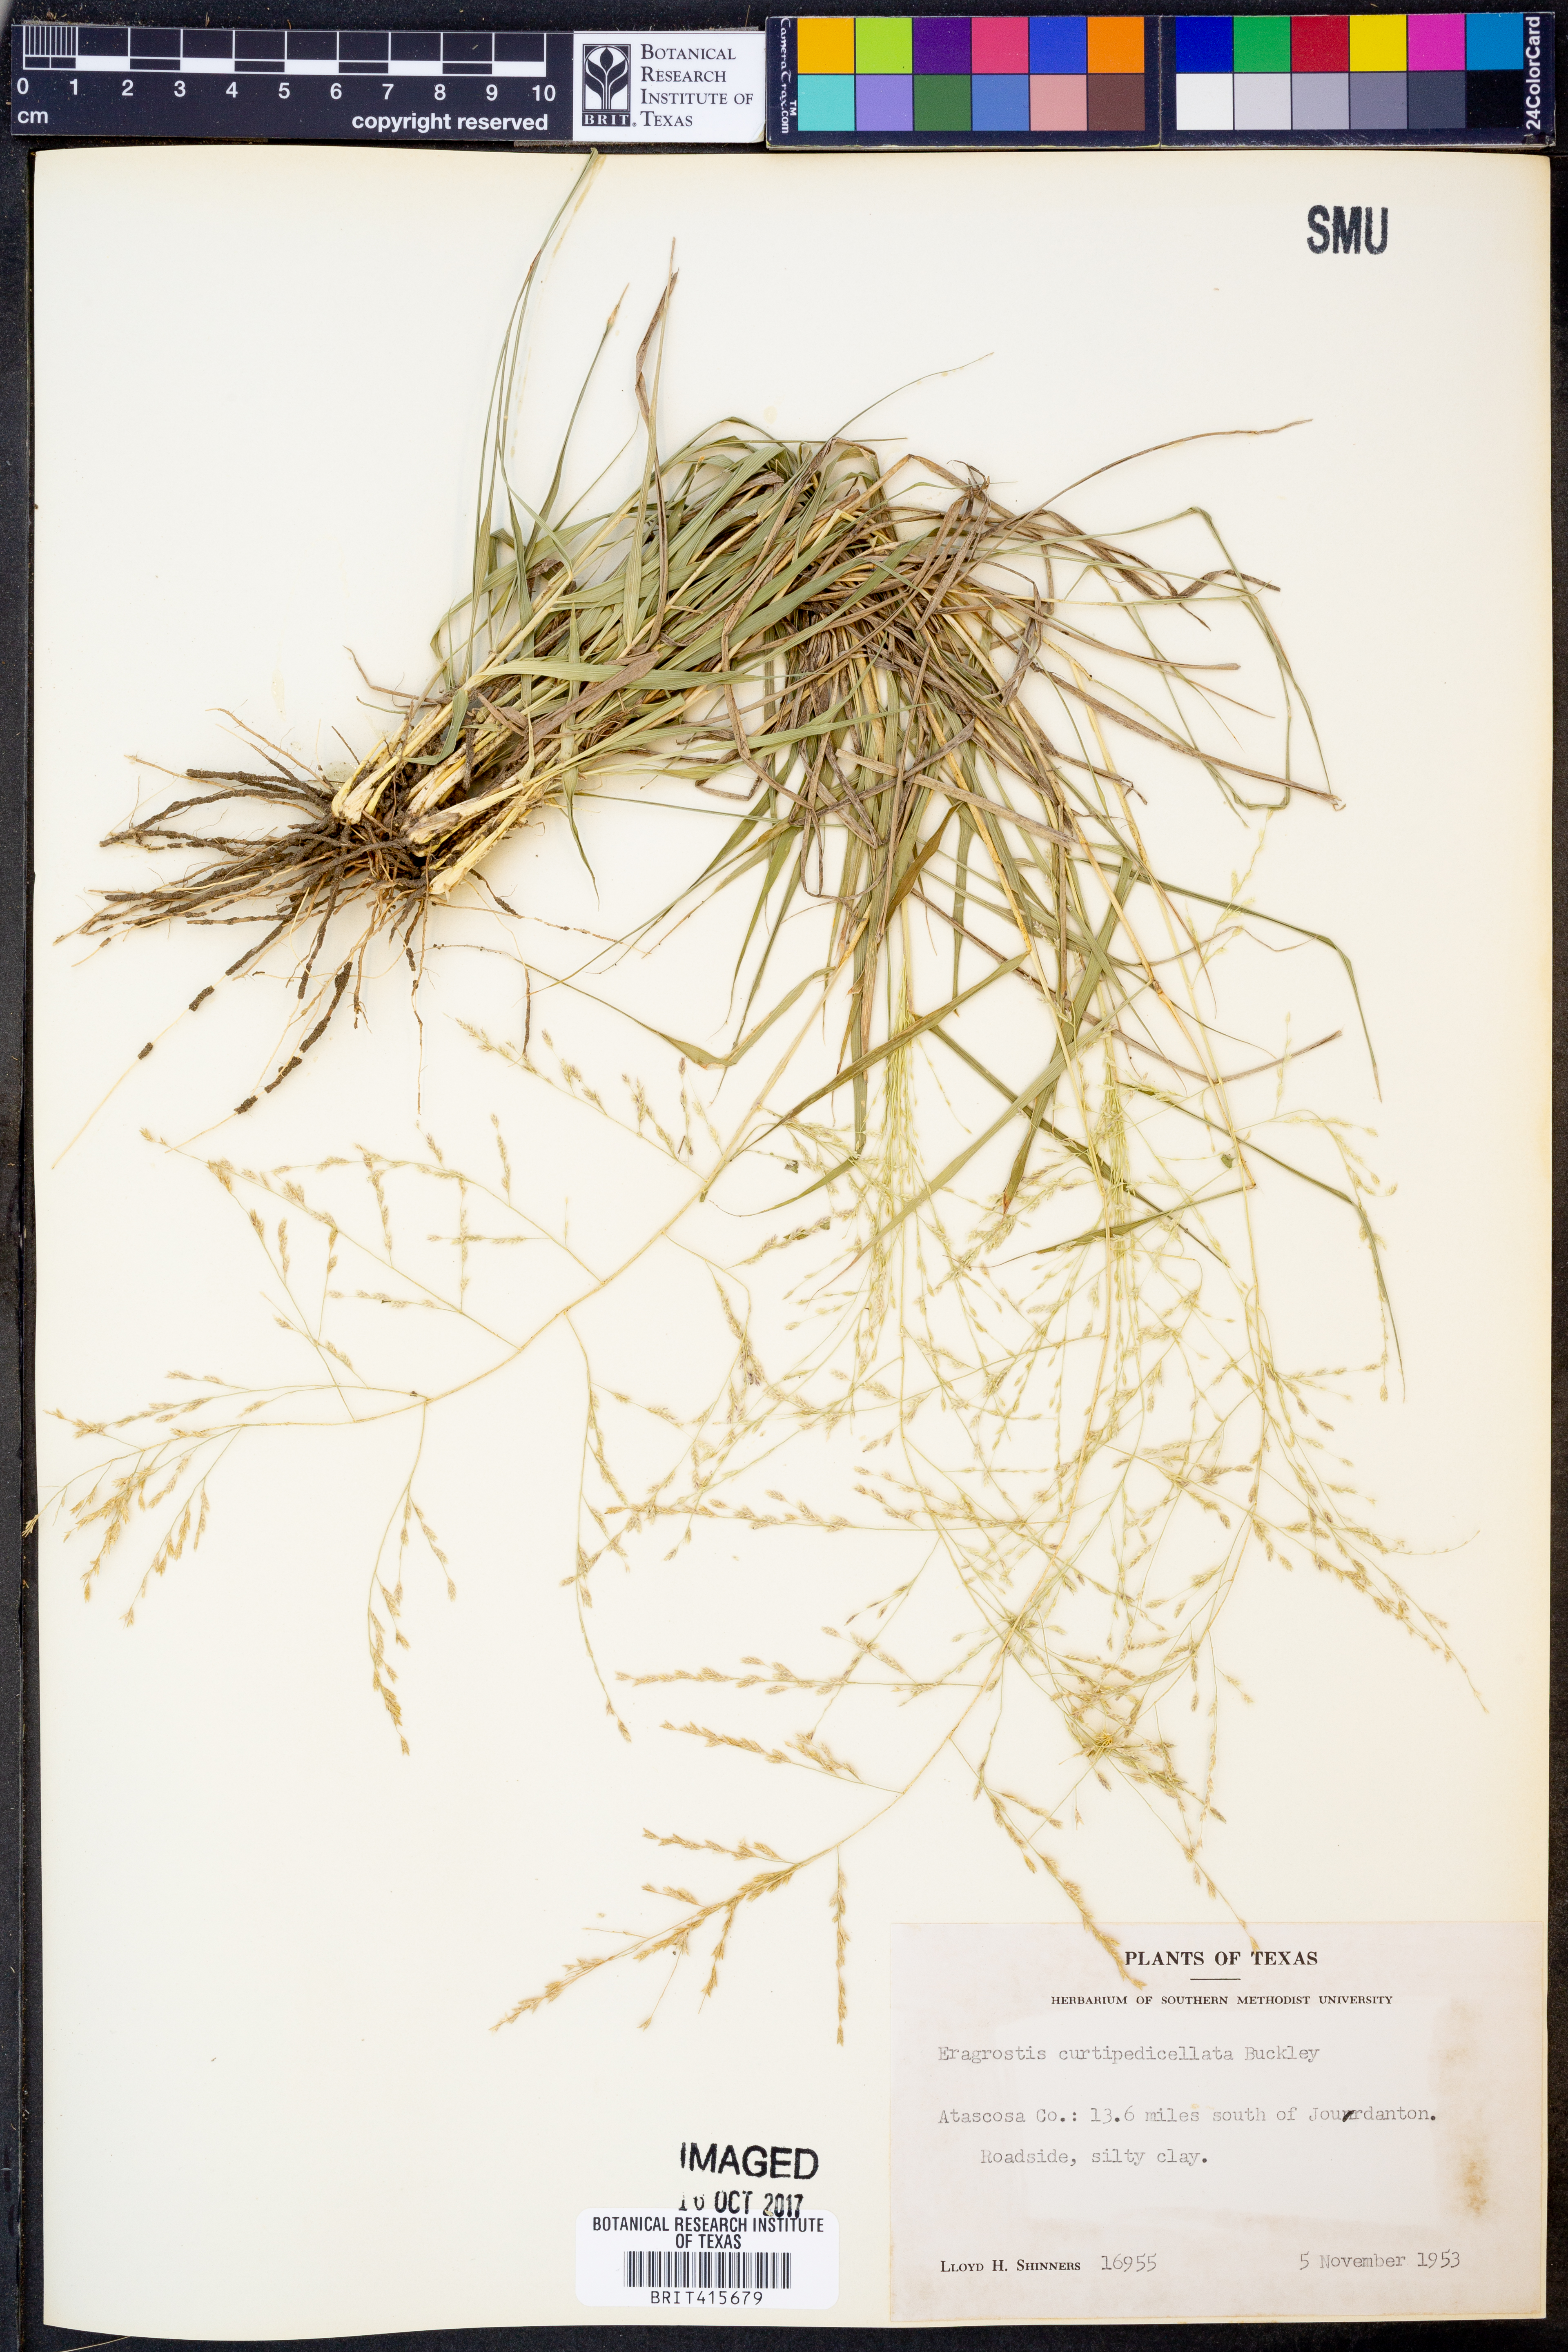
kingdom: Plantae
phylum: Tracheophyta
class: Liliopsida
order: Poales
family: Poaceae
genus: Eragrostis
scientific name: Eragrostis curtipedicellata
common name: Gummy love grass
